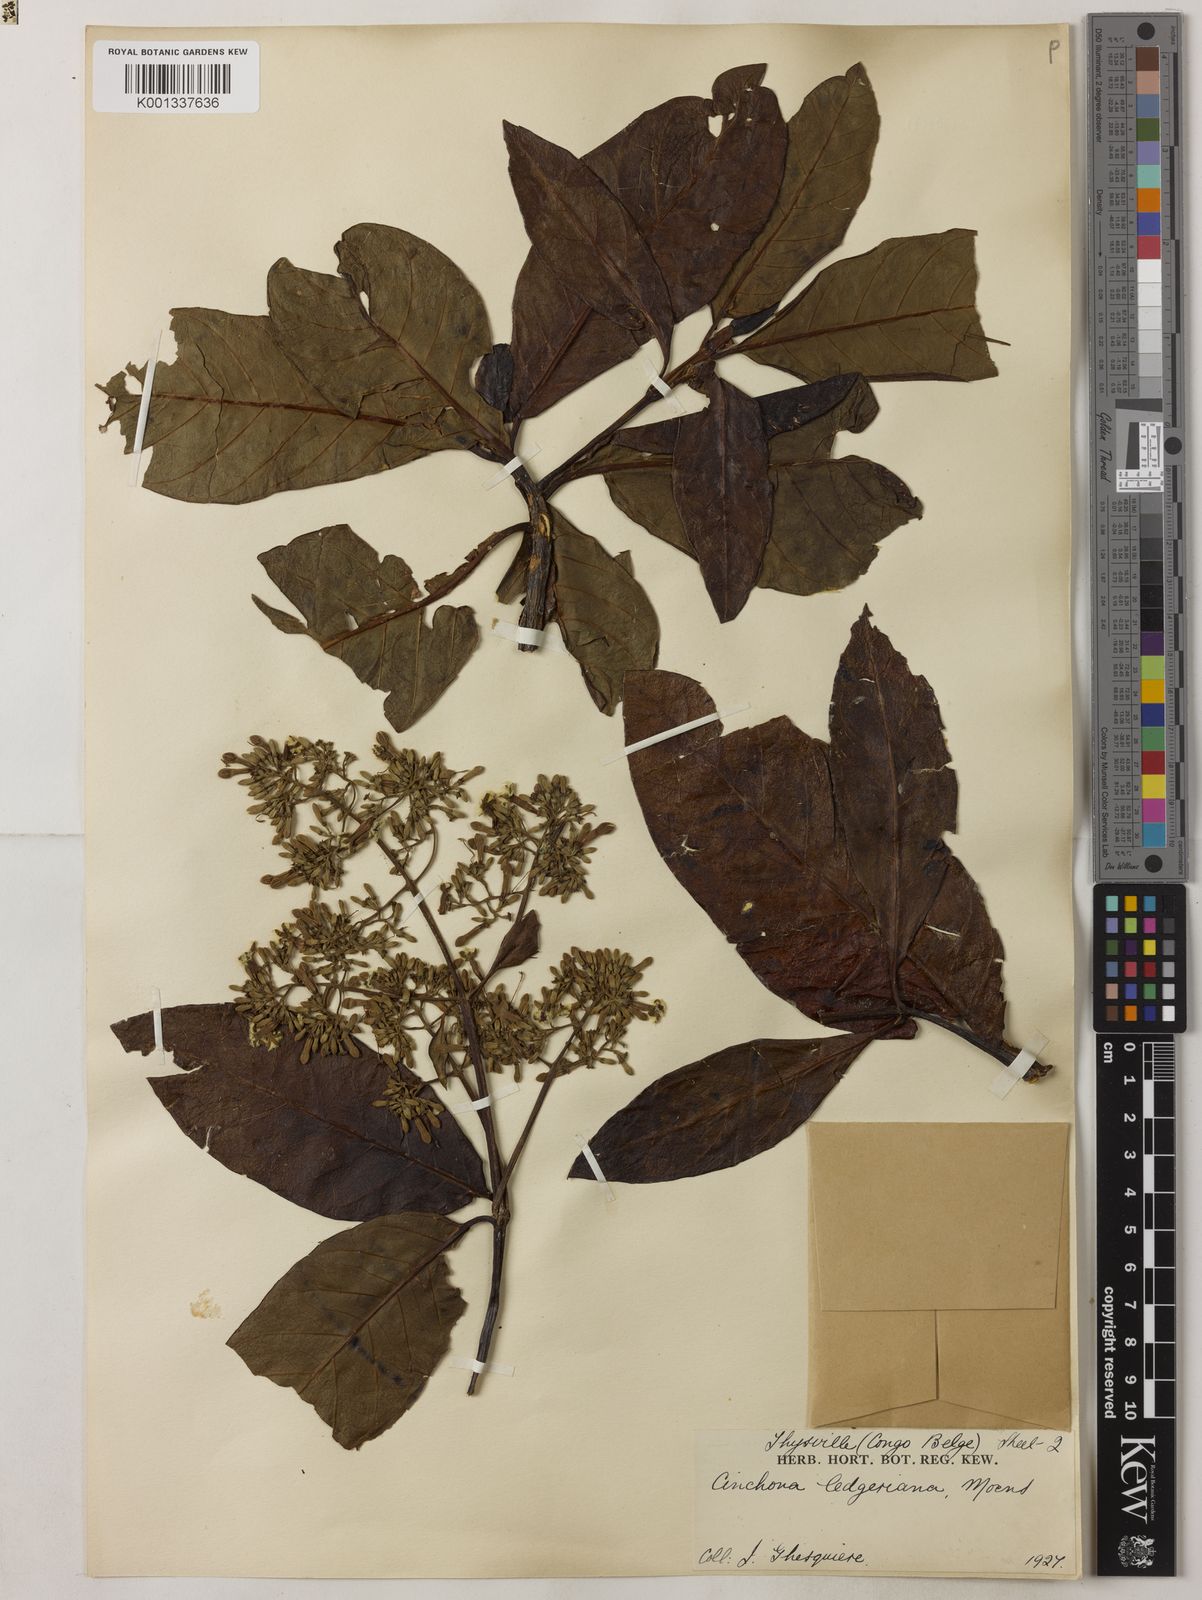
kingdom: Plantae
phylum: Tracheophyta
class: Magnoliopsida
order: Gentianales
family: Rubiaceae
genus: Cinchona
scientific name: Cinchona calisaya
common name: Ledgerbark
